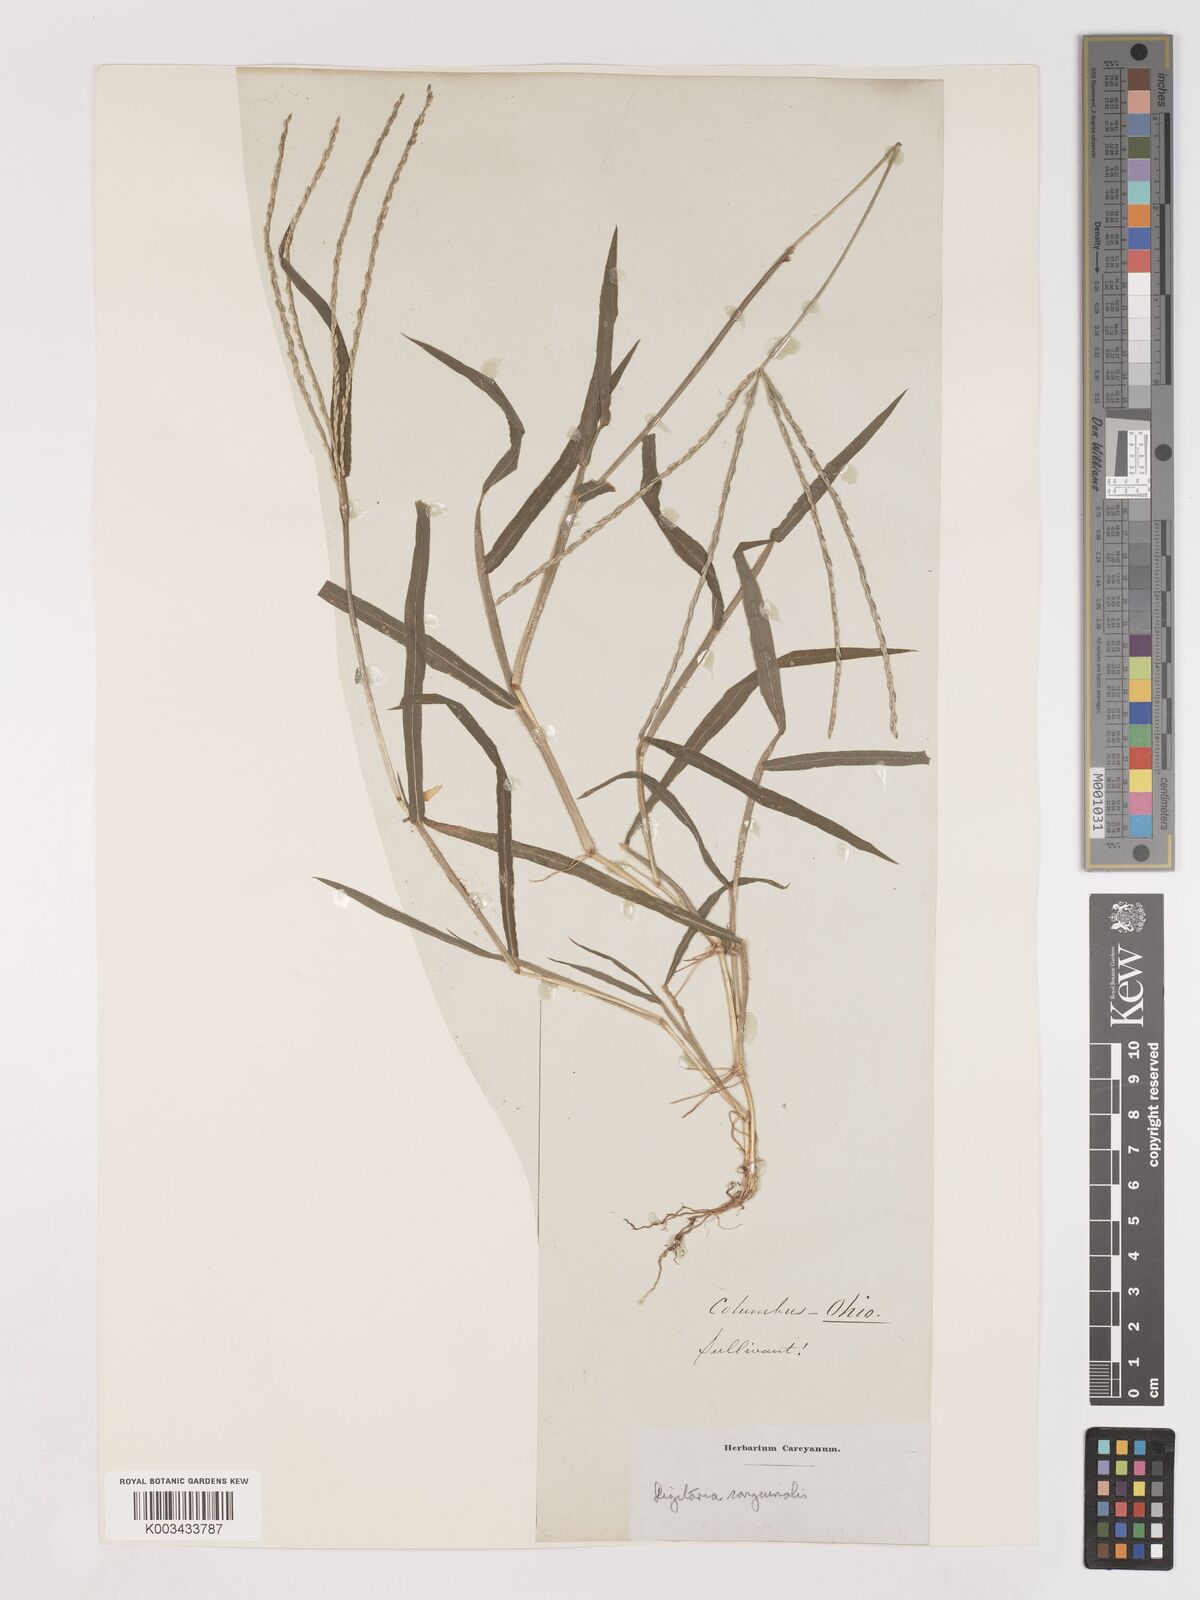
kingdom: Plantae
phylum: Tracheophyta
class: Liliopsida
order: Poales
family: Poaceae
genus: Digitaria
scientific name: Digitaria sanguinalis
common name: Hairy crabgrass
